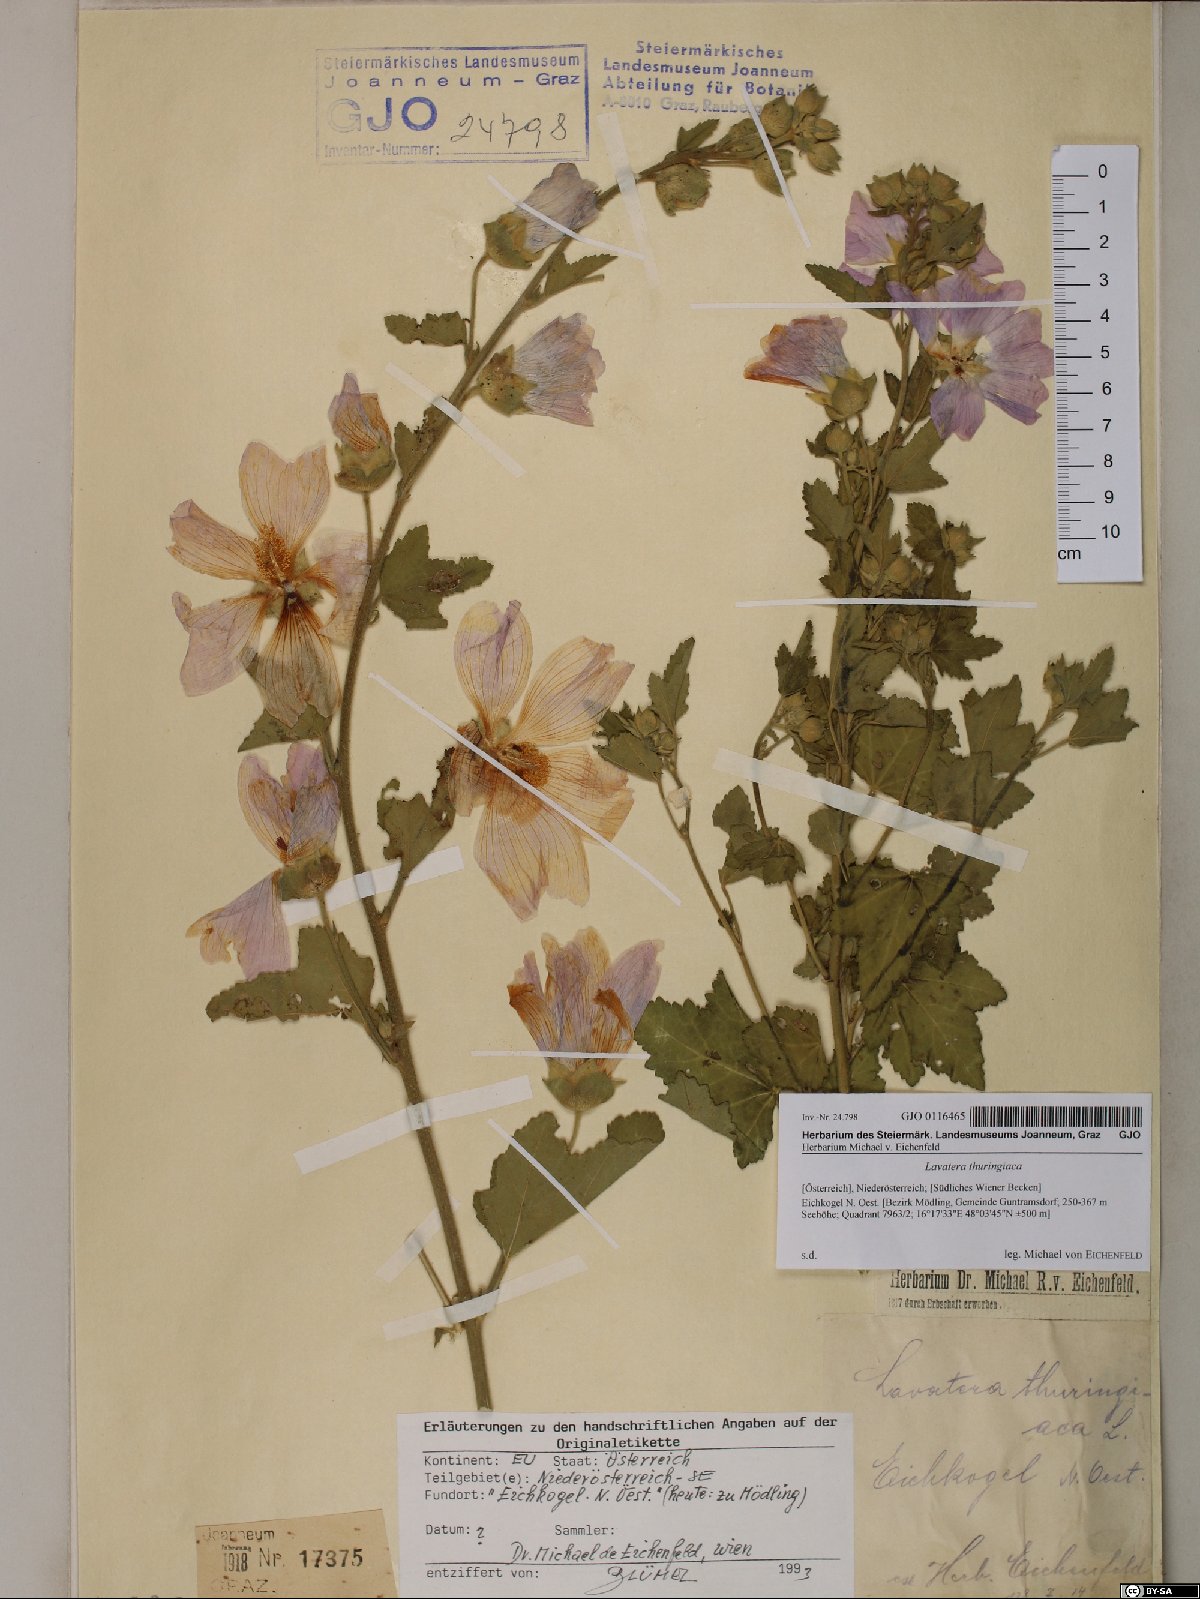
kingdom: Plantae
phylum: Tracheophyta
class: Magnoliopsida
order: Malvales
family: Malvaceae
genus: Malva
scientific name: Malva thuringiaca
